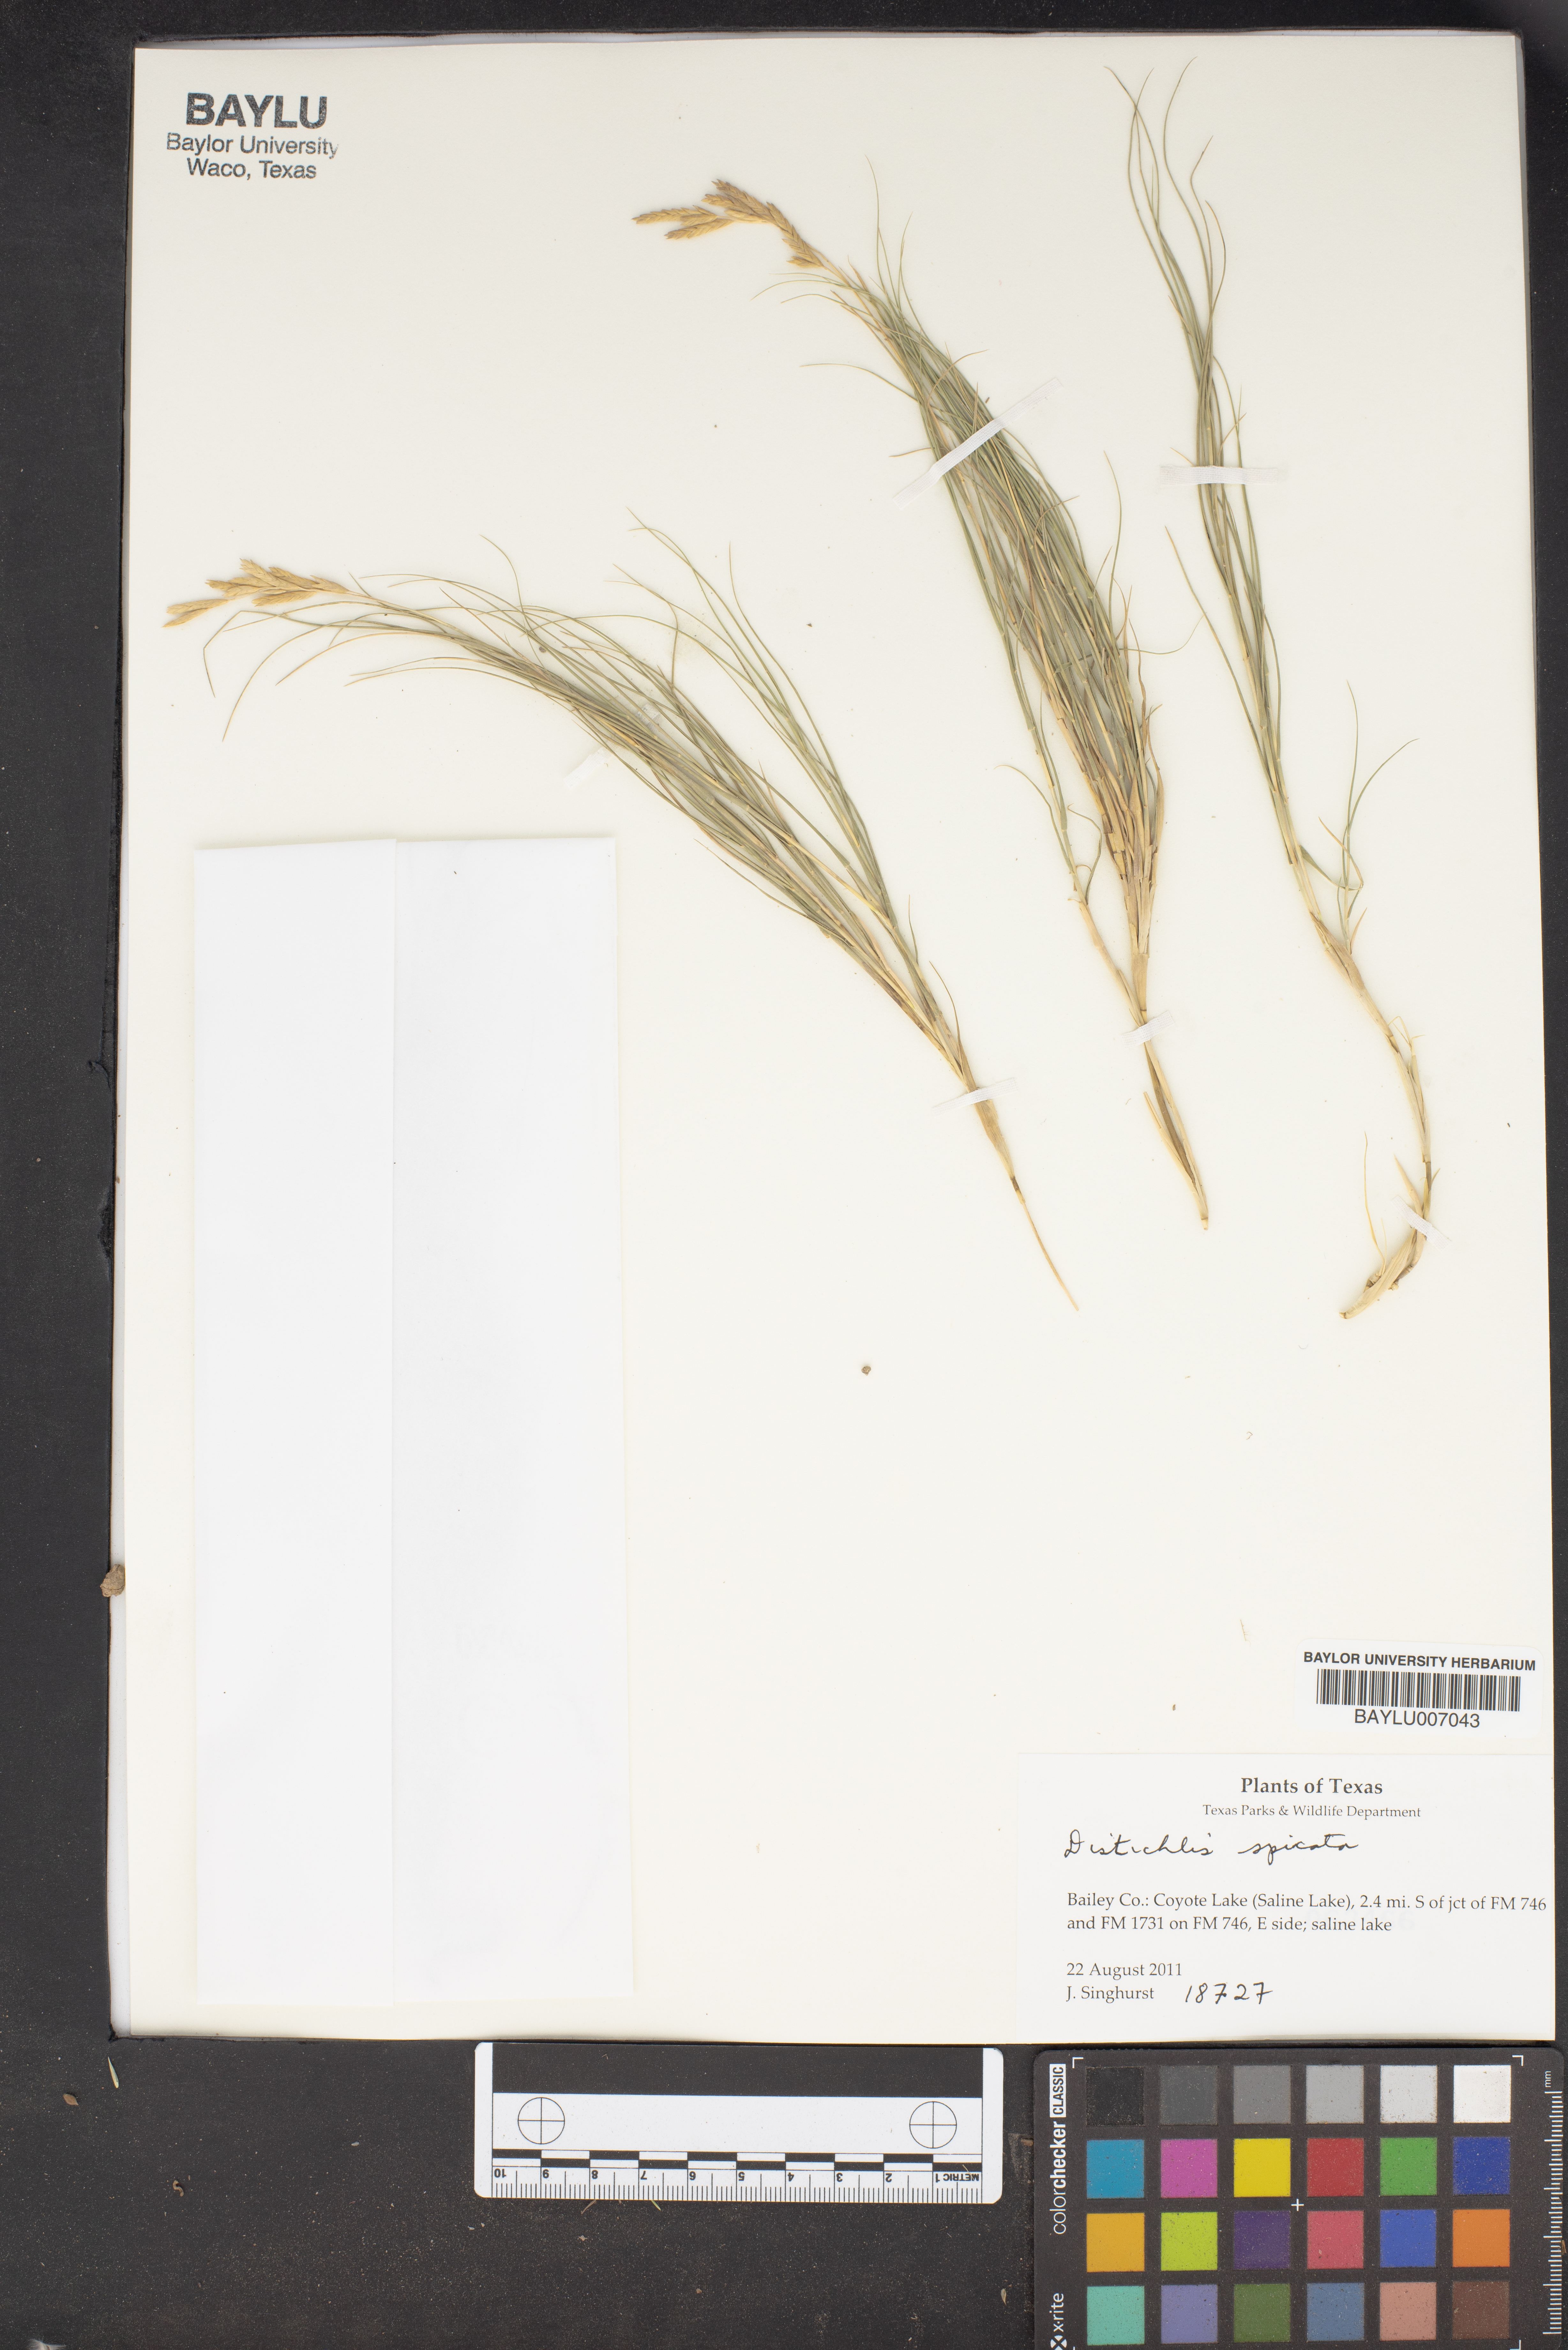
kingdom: Plantae
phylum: Tracheophyta
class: Liliopsida
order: Poales
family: Poaceae
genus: Distichlis
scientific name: Distichlis spicata
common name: Saltgrass
